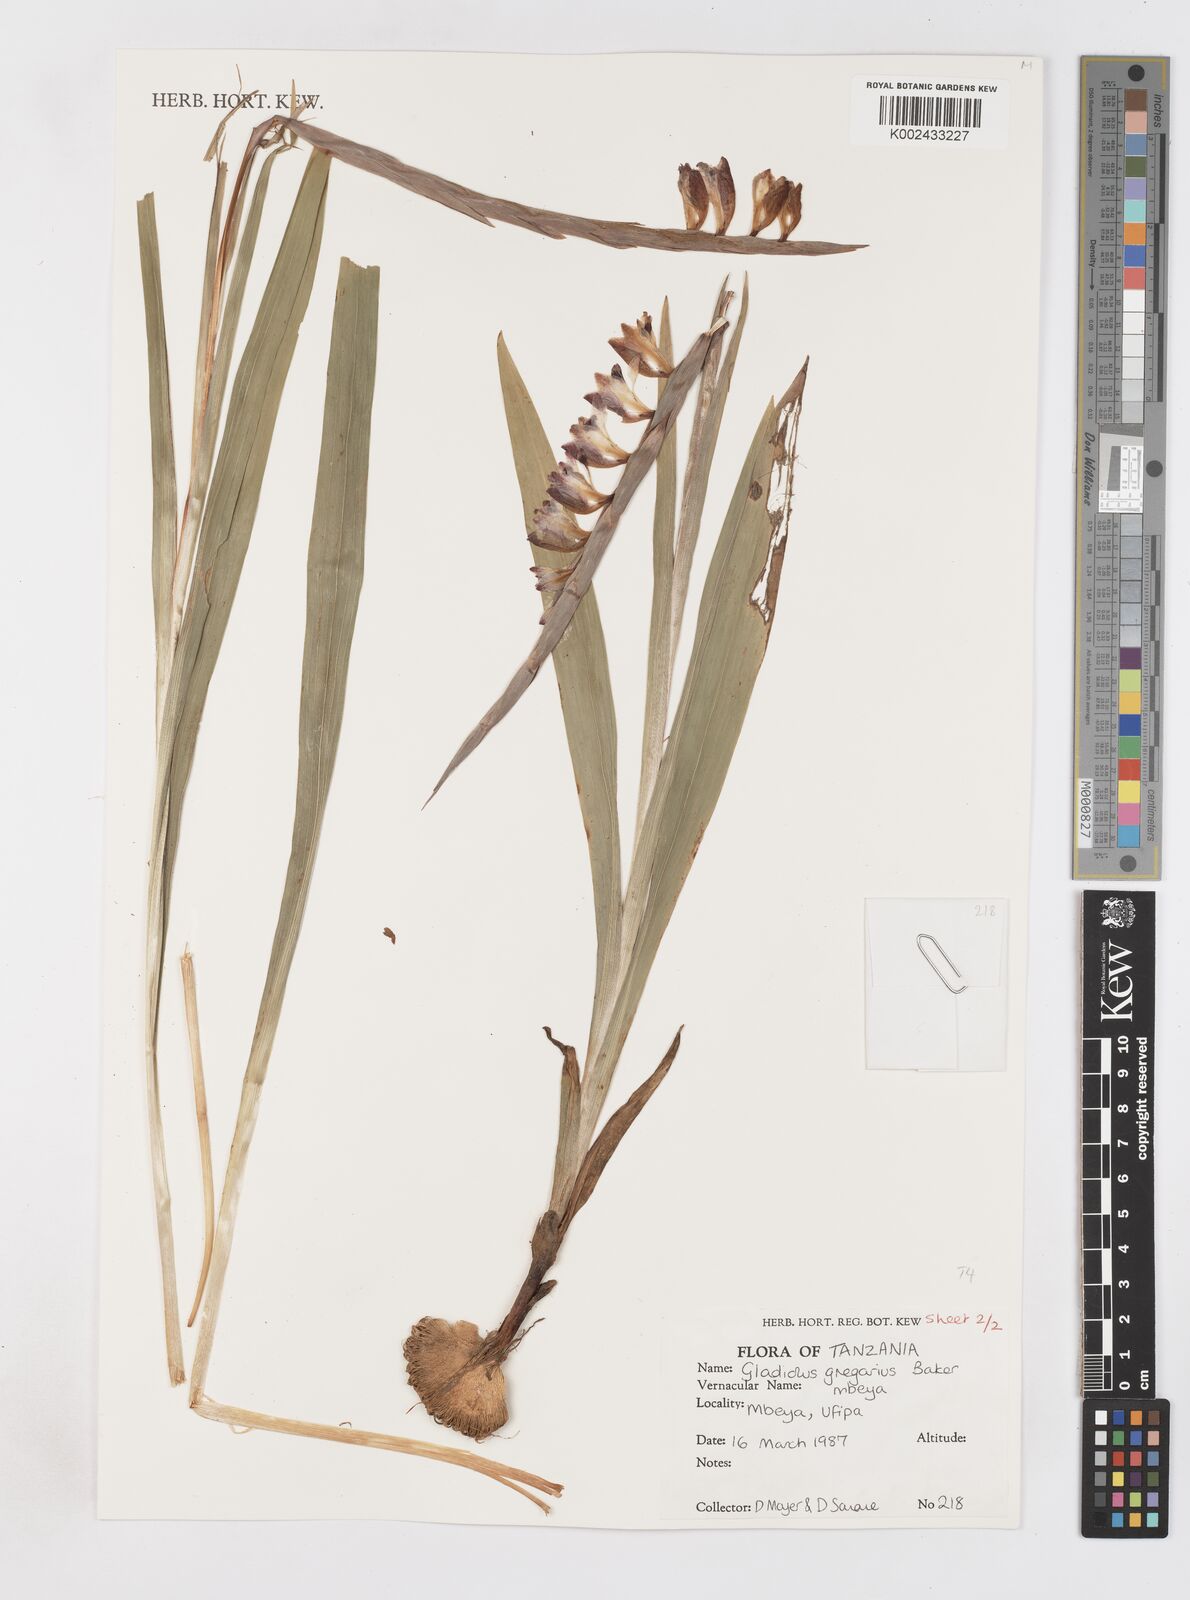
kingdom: Plantae
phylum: Tracheophyta
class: Liliopsida
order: Asparagales
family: Iridaceae
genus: Gladiolus
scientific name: Gladiolus gregarius
